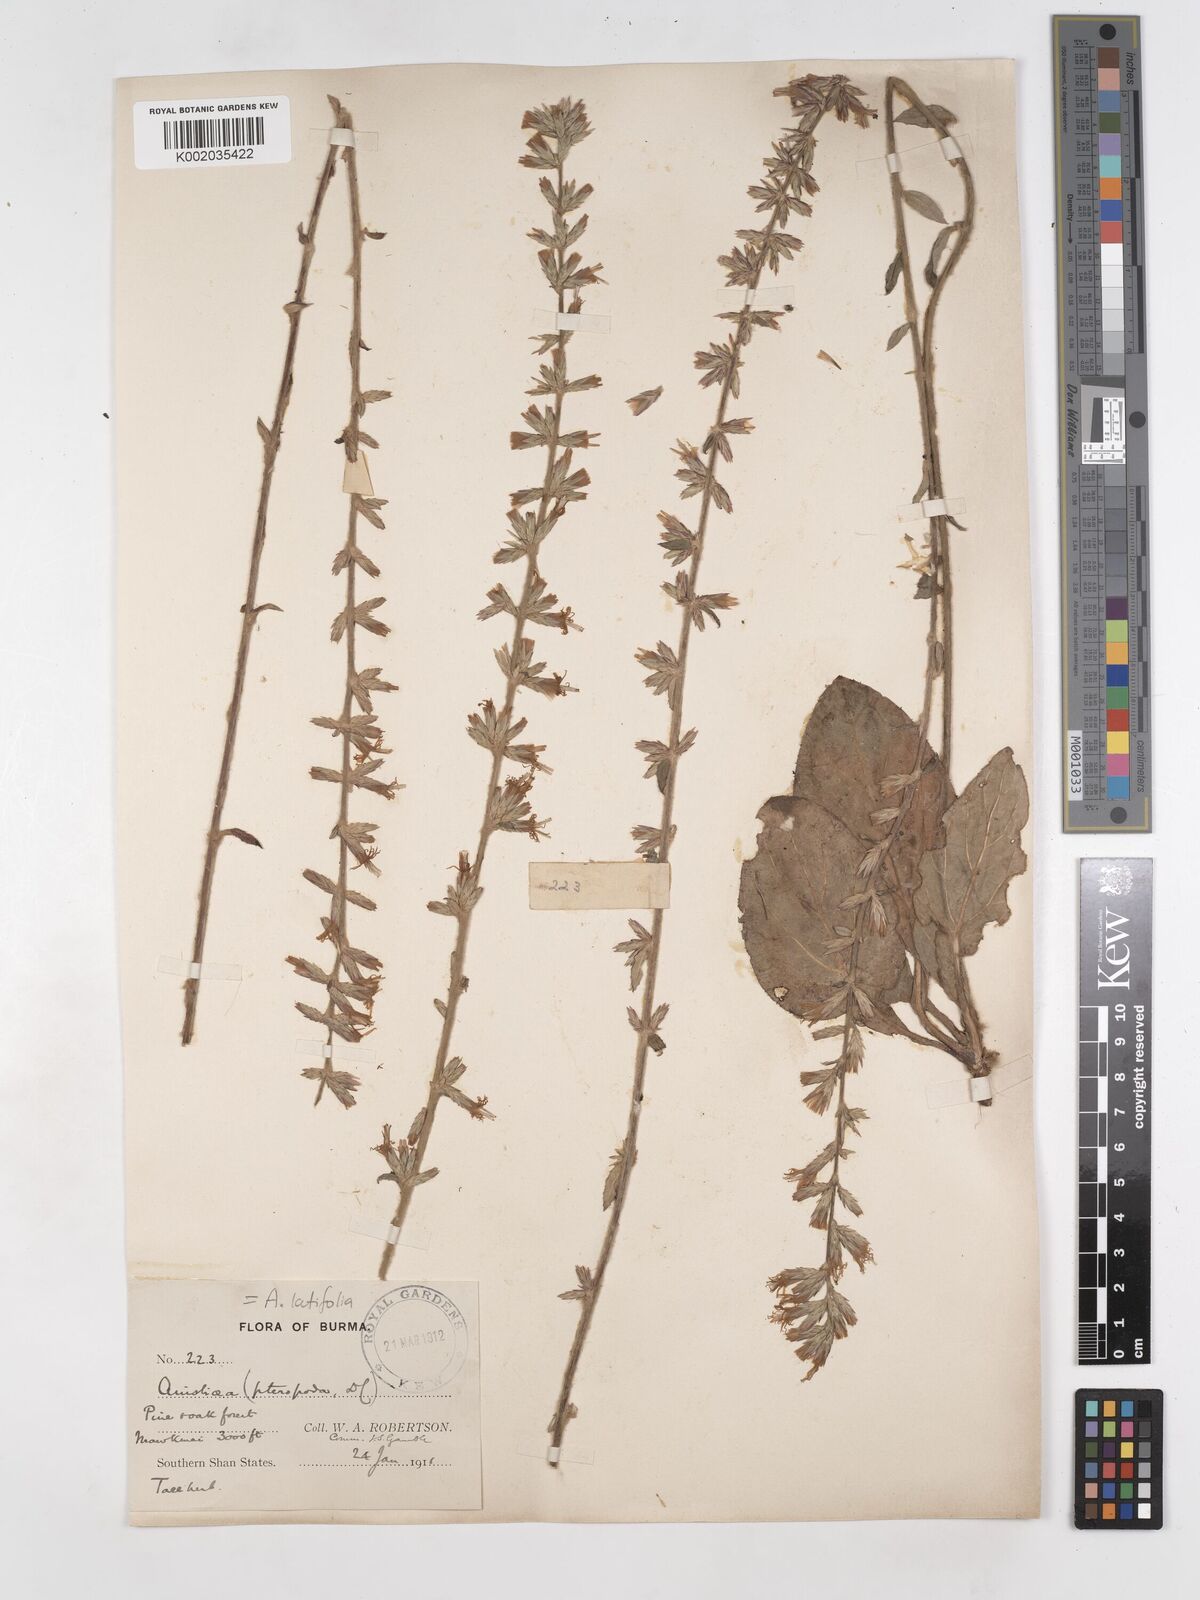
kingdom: Plantae
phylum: Tracheophyta
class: Magnoliopsida
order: Asterales
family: Asteraceae
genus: Ainsliaea
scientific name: Ainsliaea latifolia
